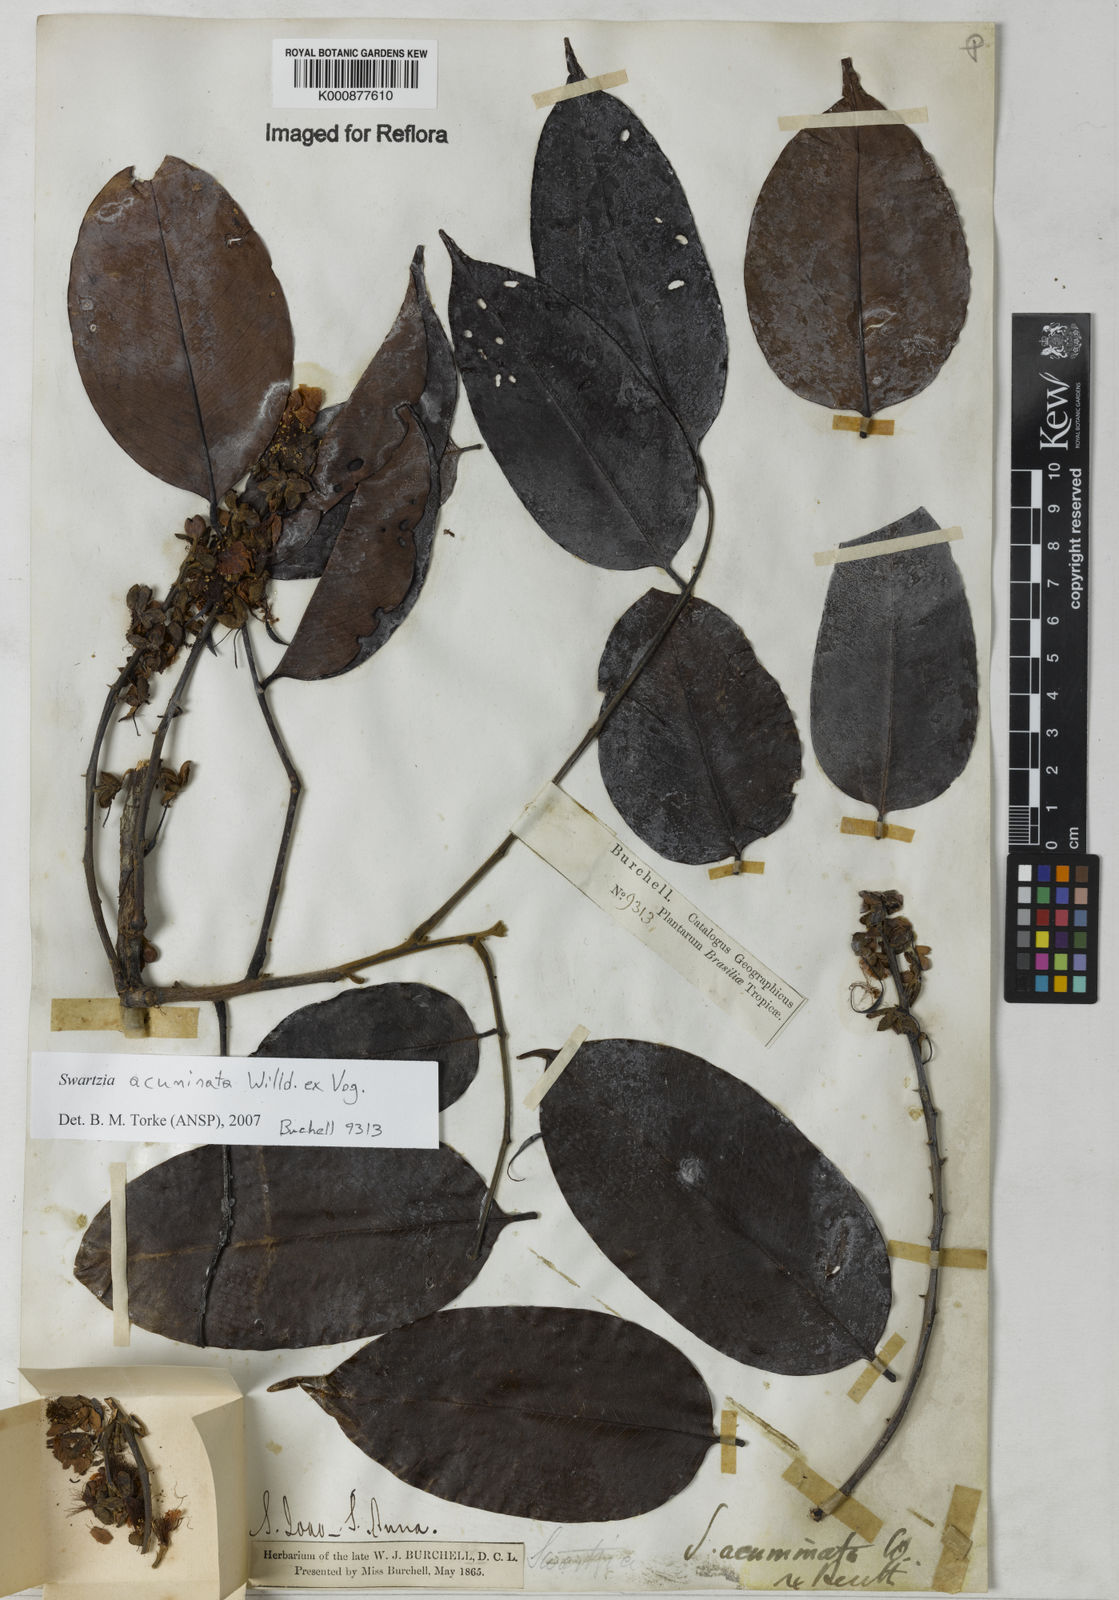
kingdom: Plantae
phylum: Tracheophyta
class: Magnoliopsida
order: Fabales
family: Fabaceae
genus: Swartzia
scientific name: Swartzia acuminata
